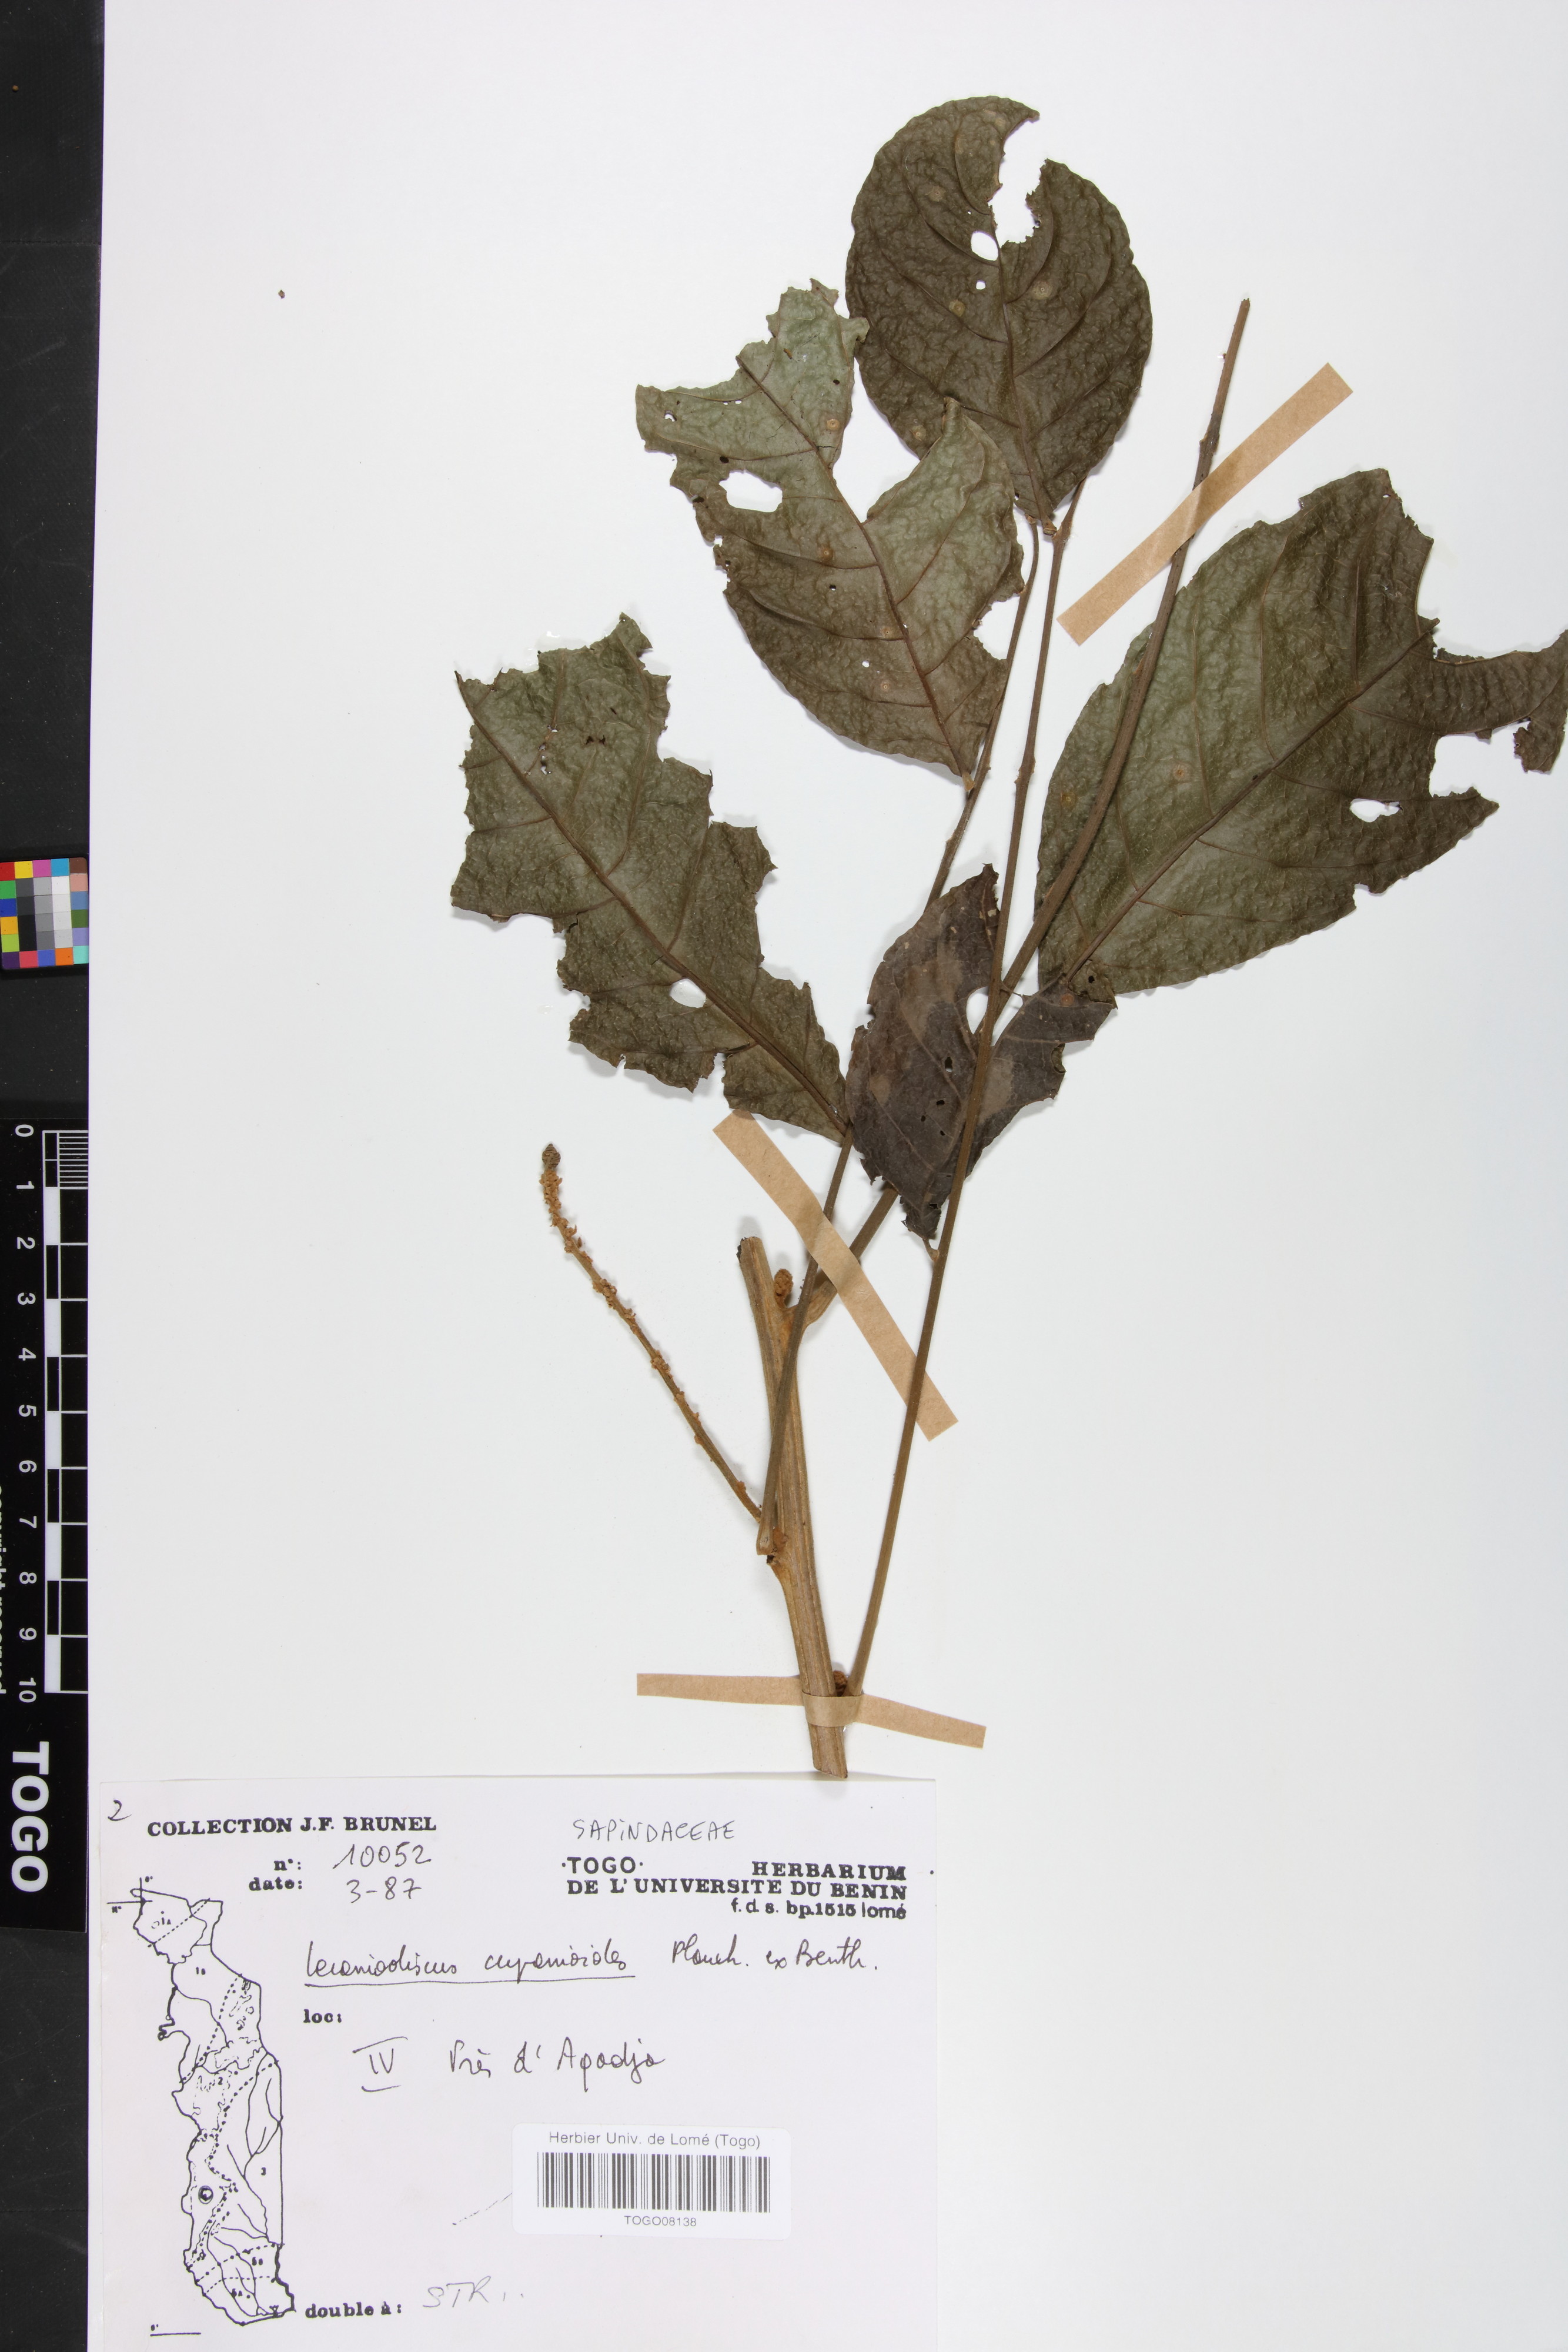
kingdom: Plantae
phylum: Tracheophyta
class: Magnoliopsida
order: Sapindales
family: Sapindaceae
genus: Lecaniodiscus
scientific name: Lecaniodiscus cupanioides
